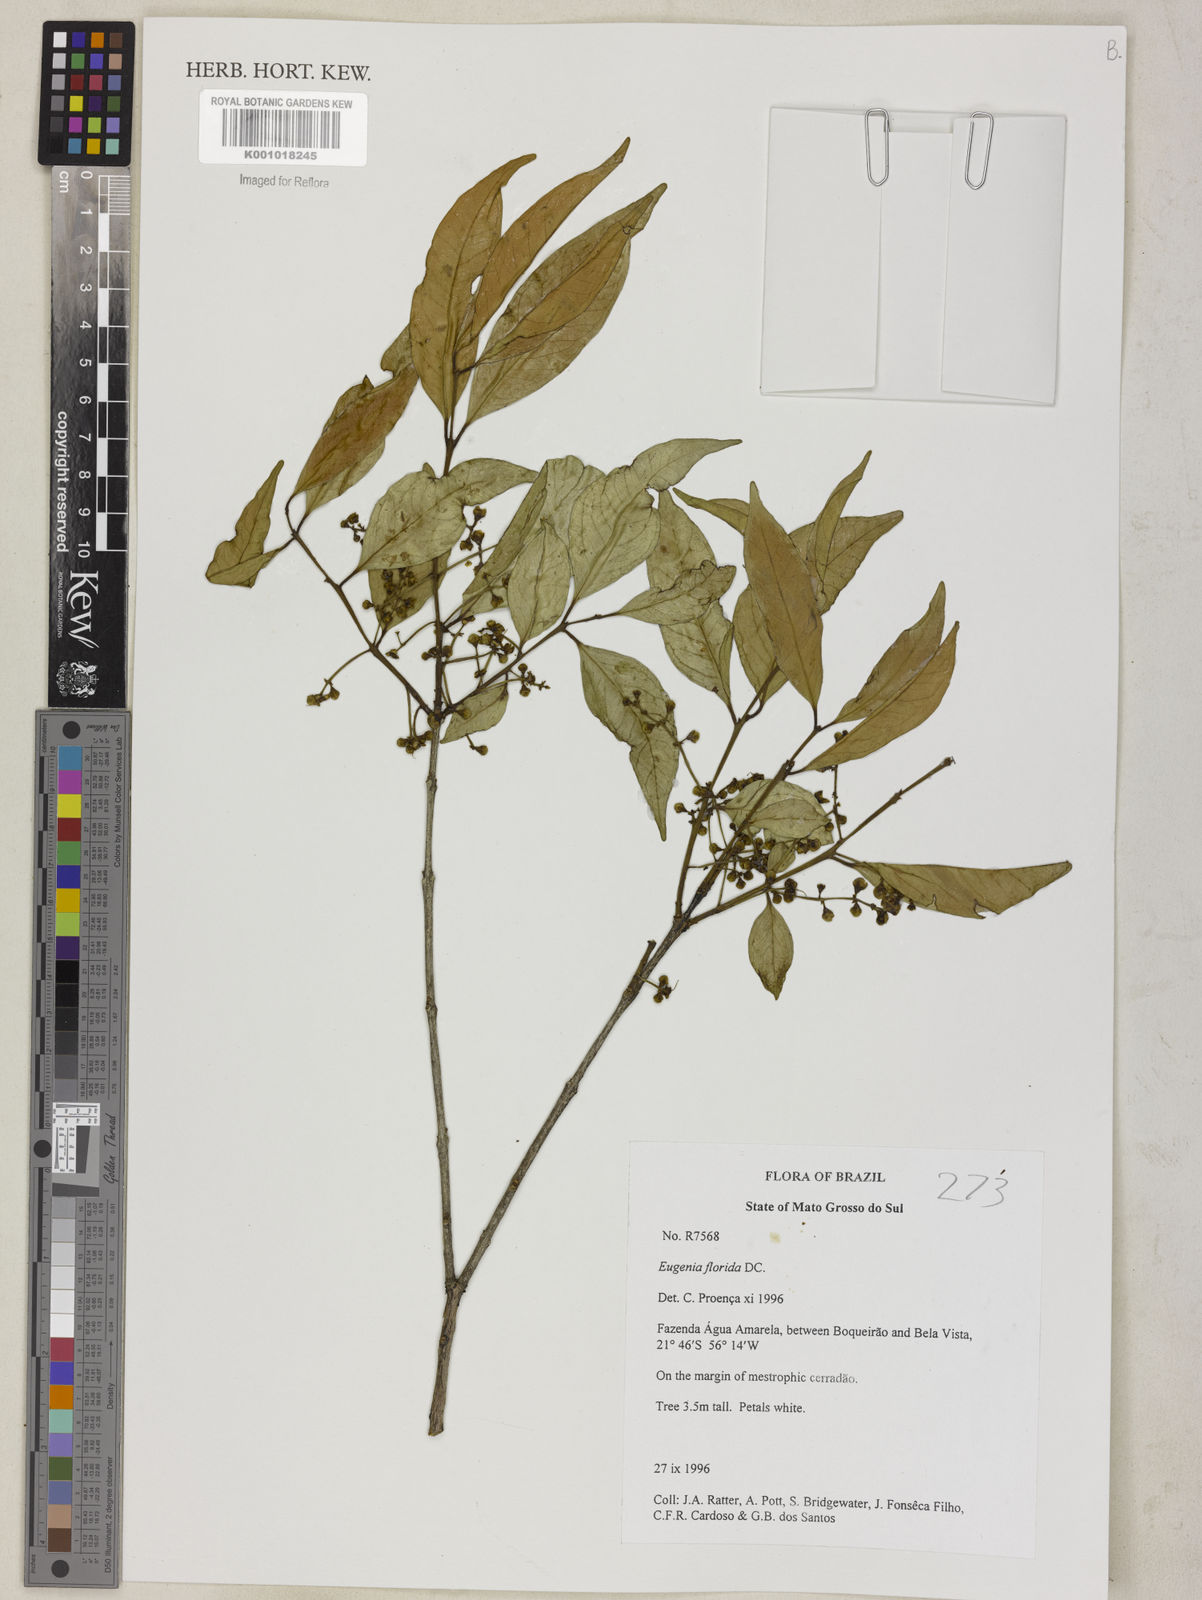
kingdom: Plantae
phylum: Tracheophyta
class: Magnoliopsida
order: Myrtales
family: Myrtaceae
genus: Eugenia
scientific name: Eugenia florida
